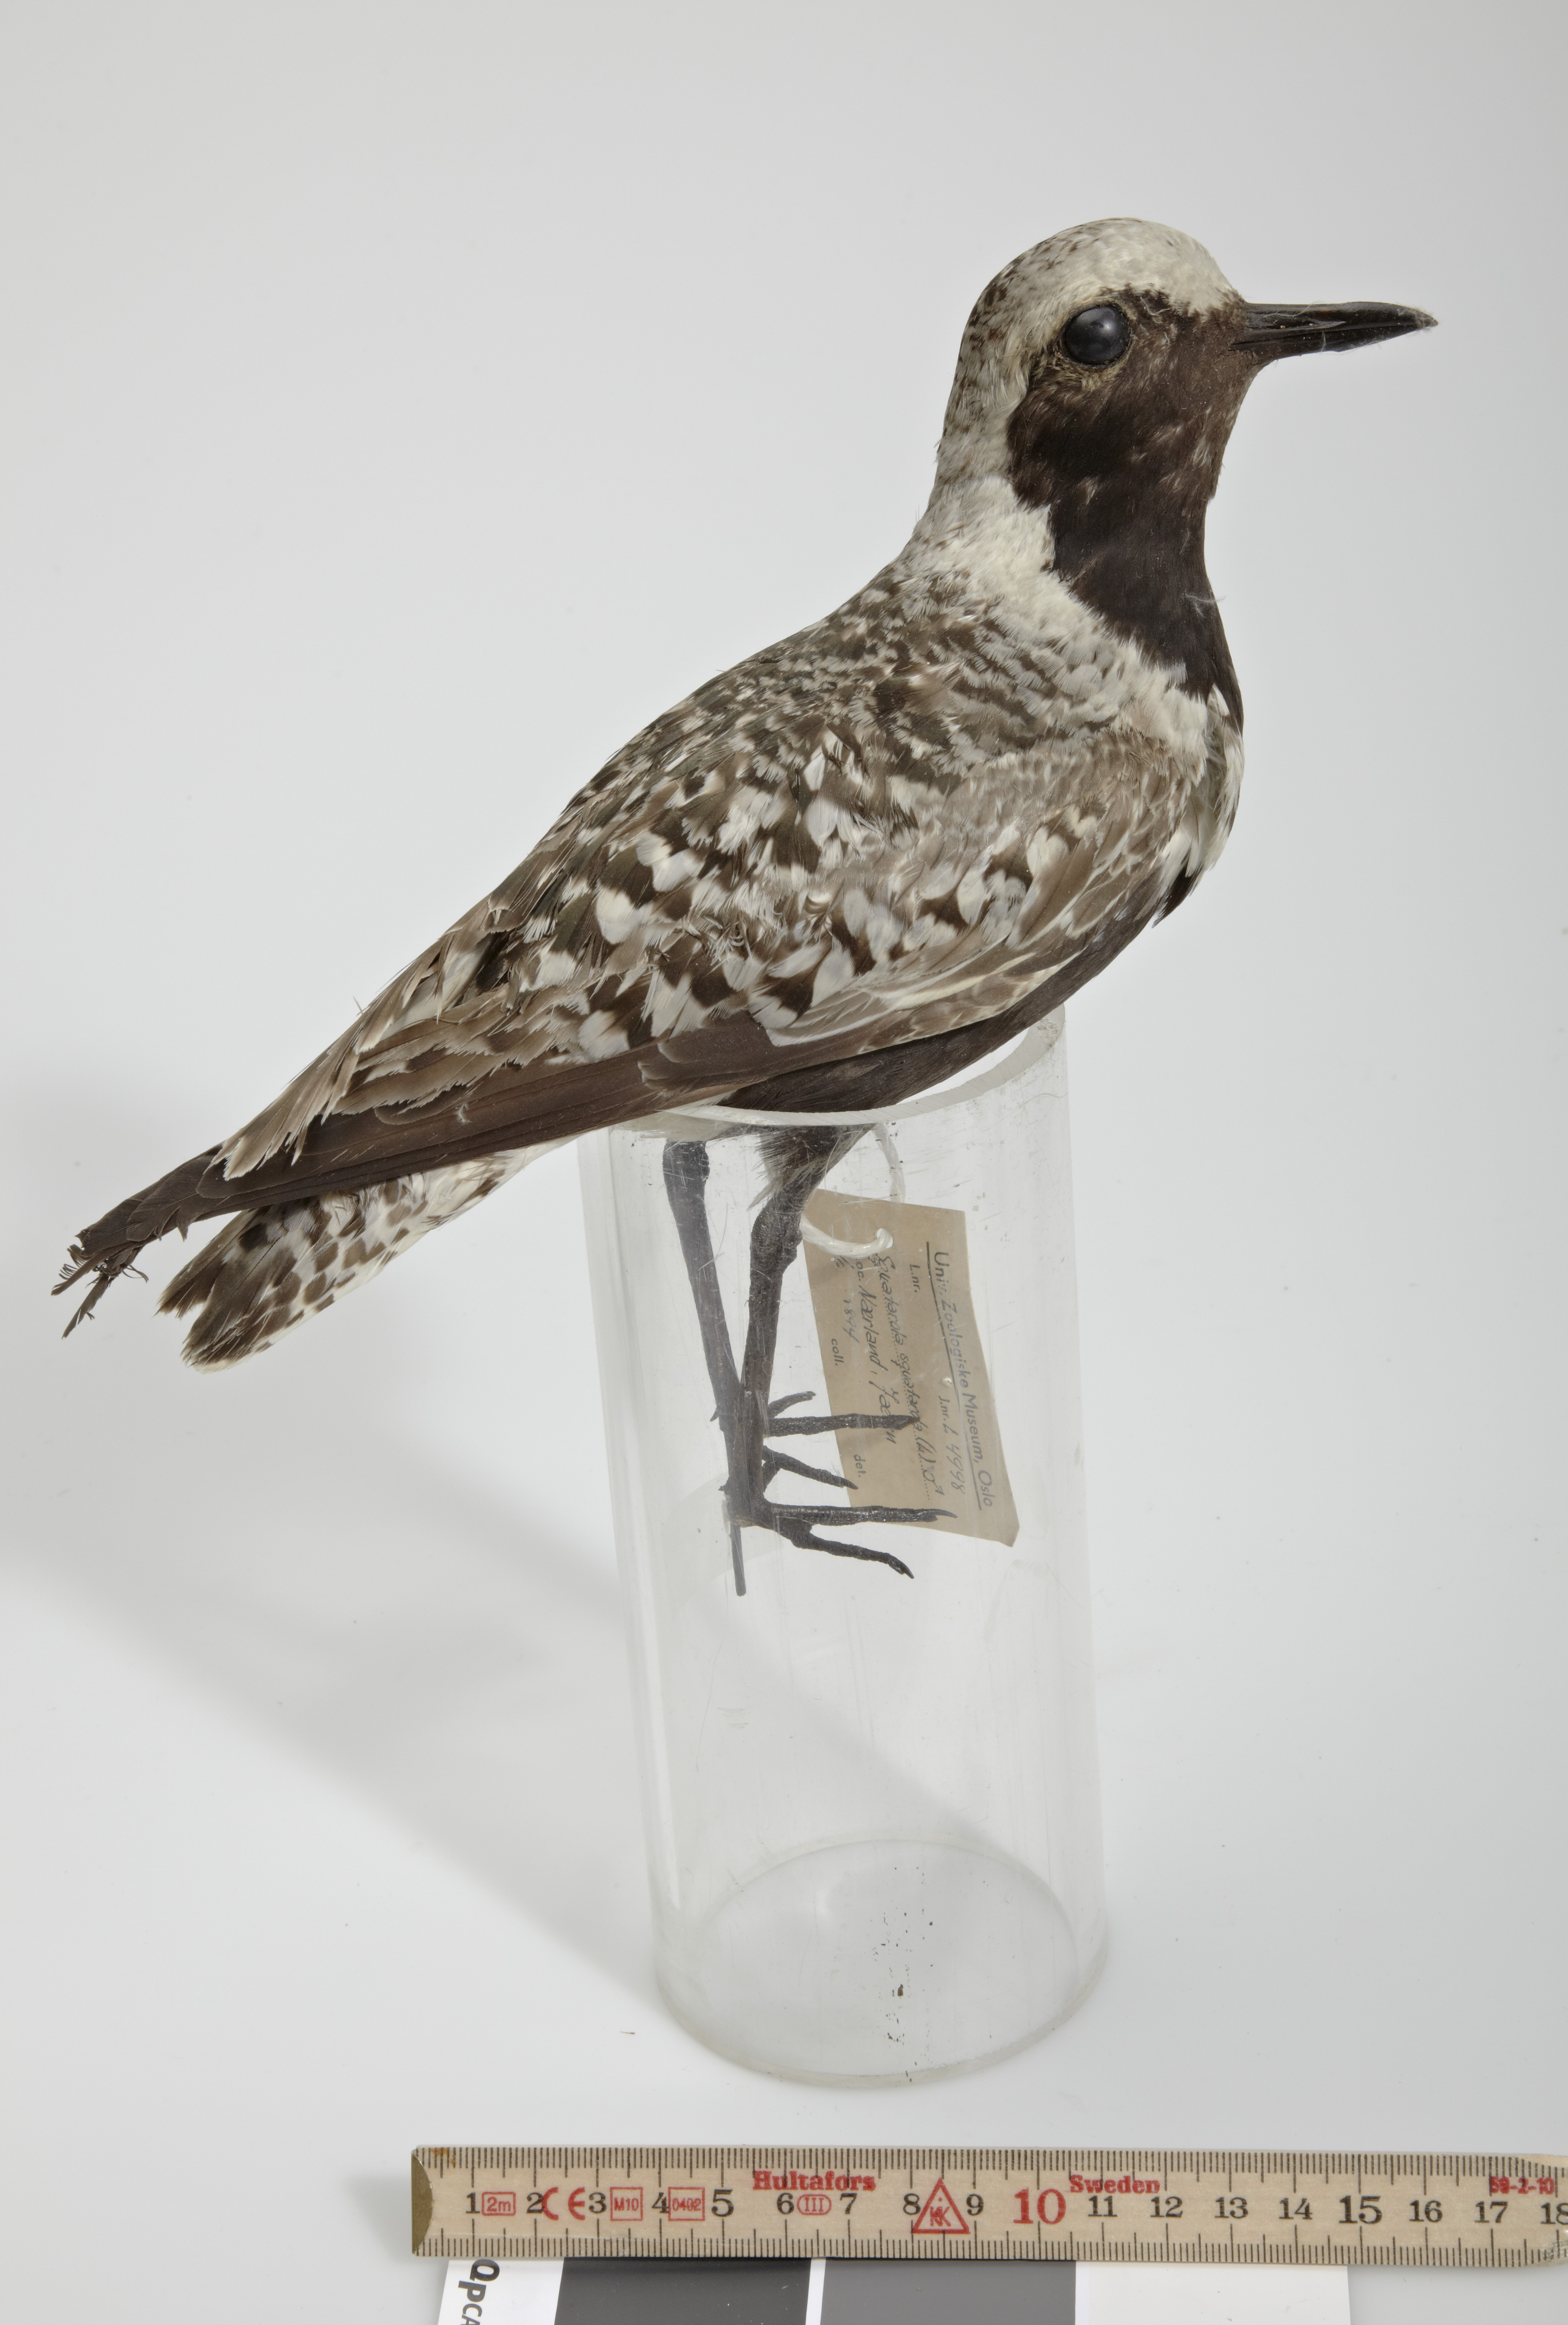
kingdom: Animalia
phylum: Chordata
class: Aves
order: Charadriiformes
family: Charadriidae
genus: Pluvialis
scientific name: Pluvialis squatarola
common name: Grey plover
